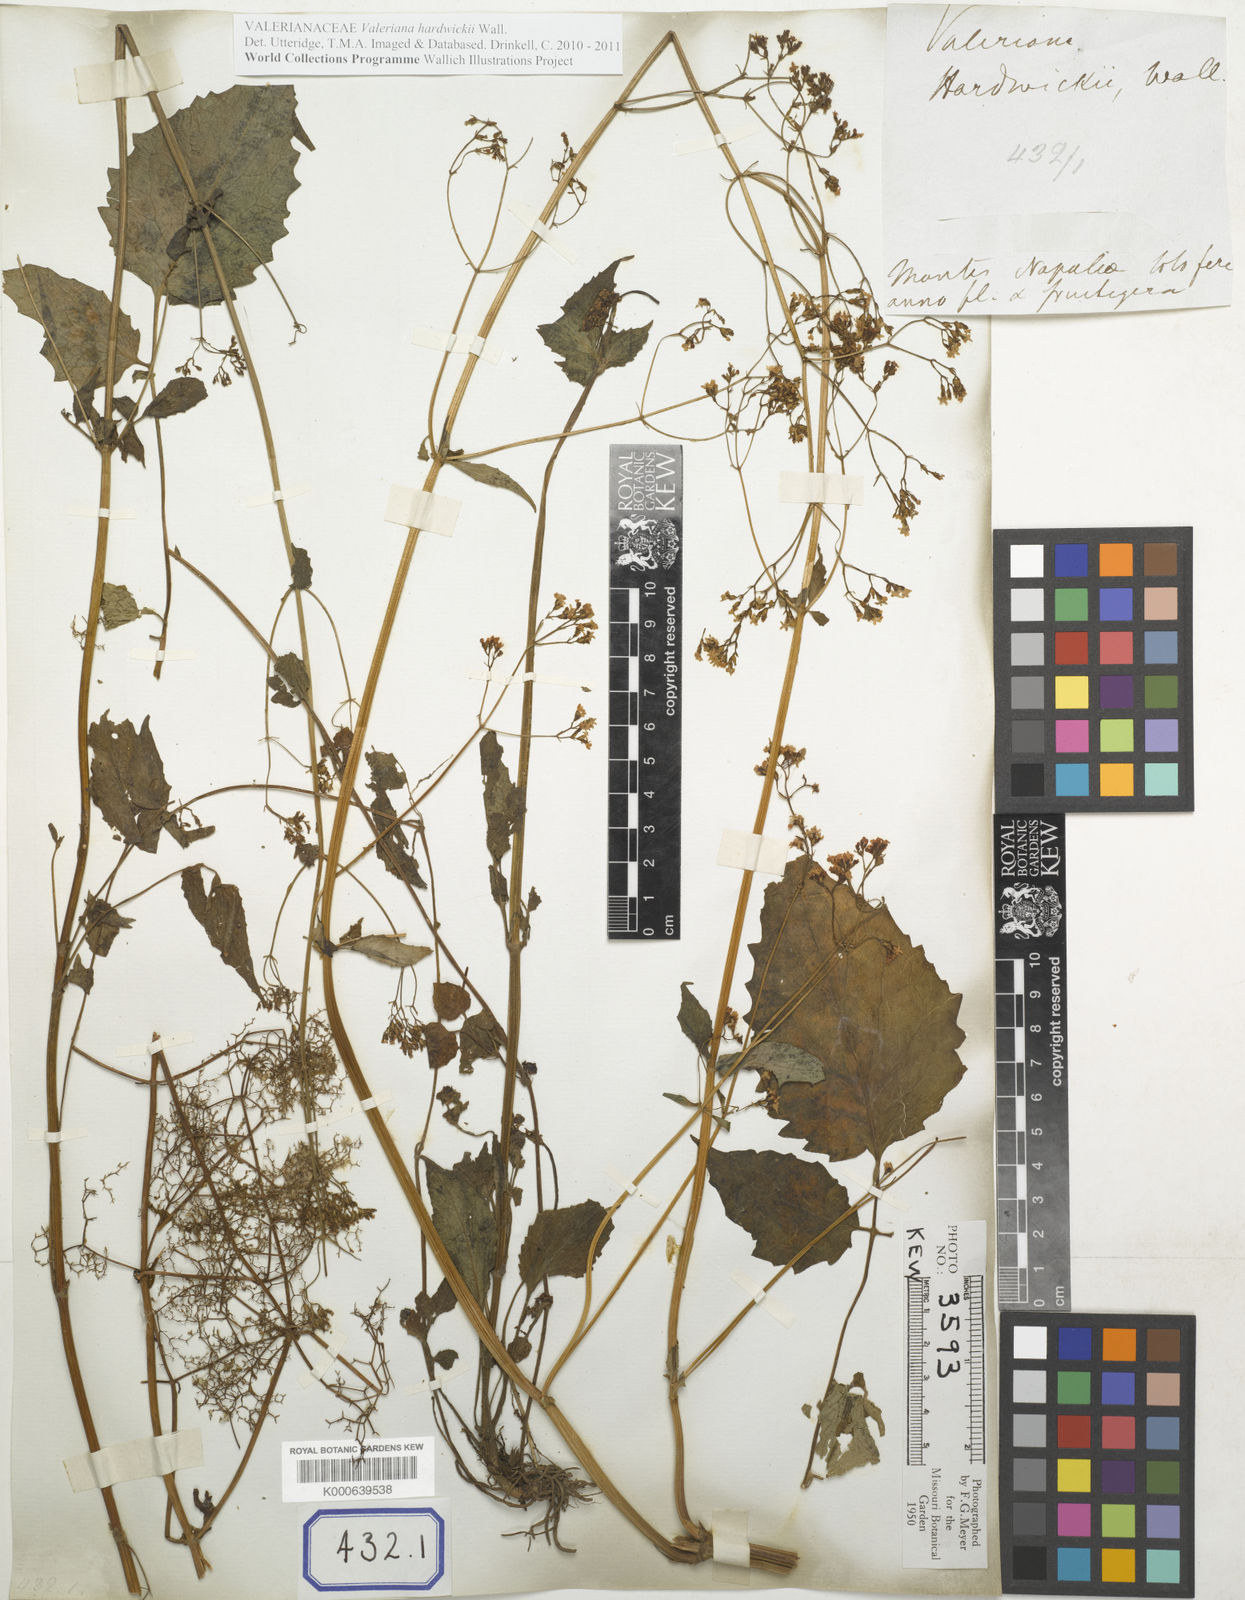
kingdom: Plantae
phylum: Tracheophyta
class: Magnoliopsida
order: Dipsacales
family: Caprifoliaceae
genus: Valeriana
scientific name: Valeriana hardwickei
